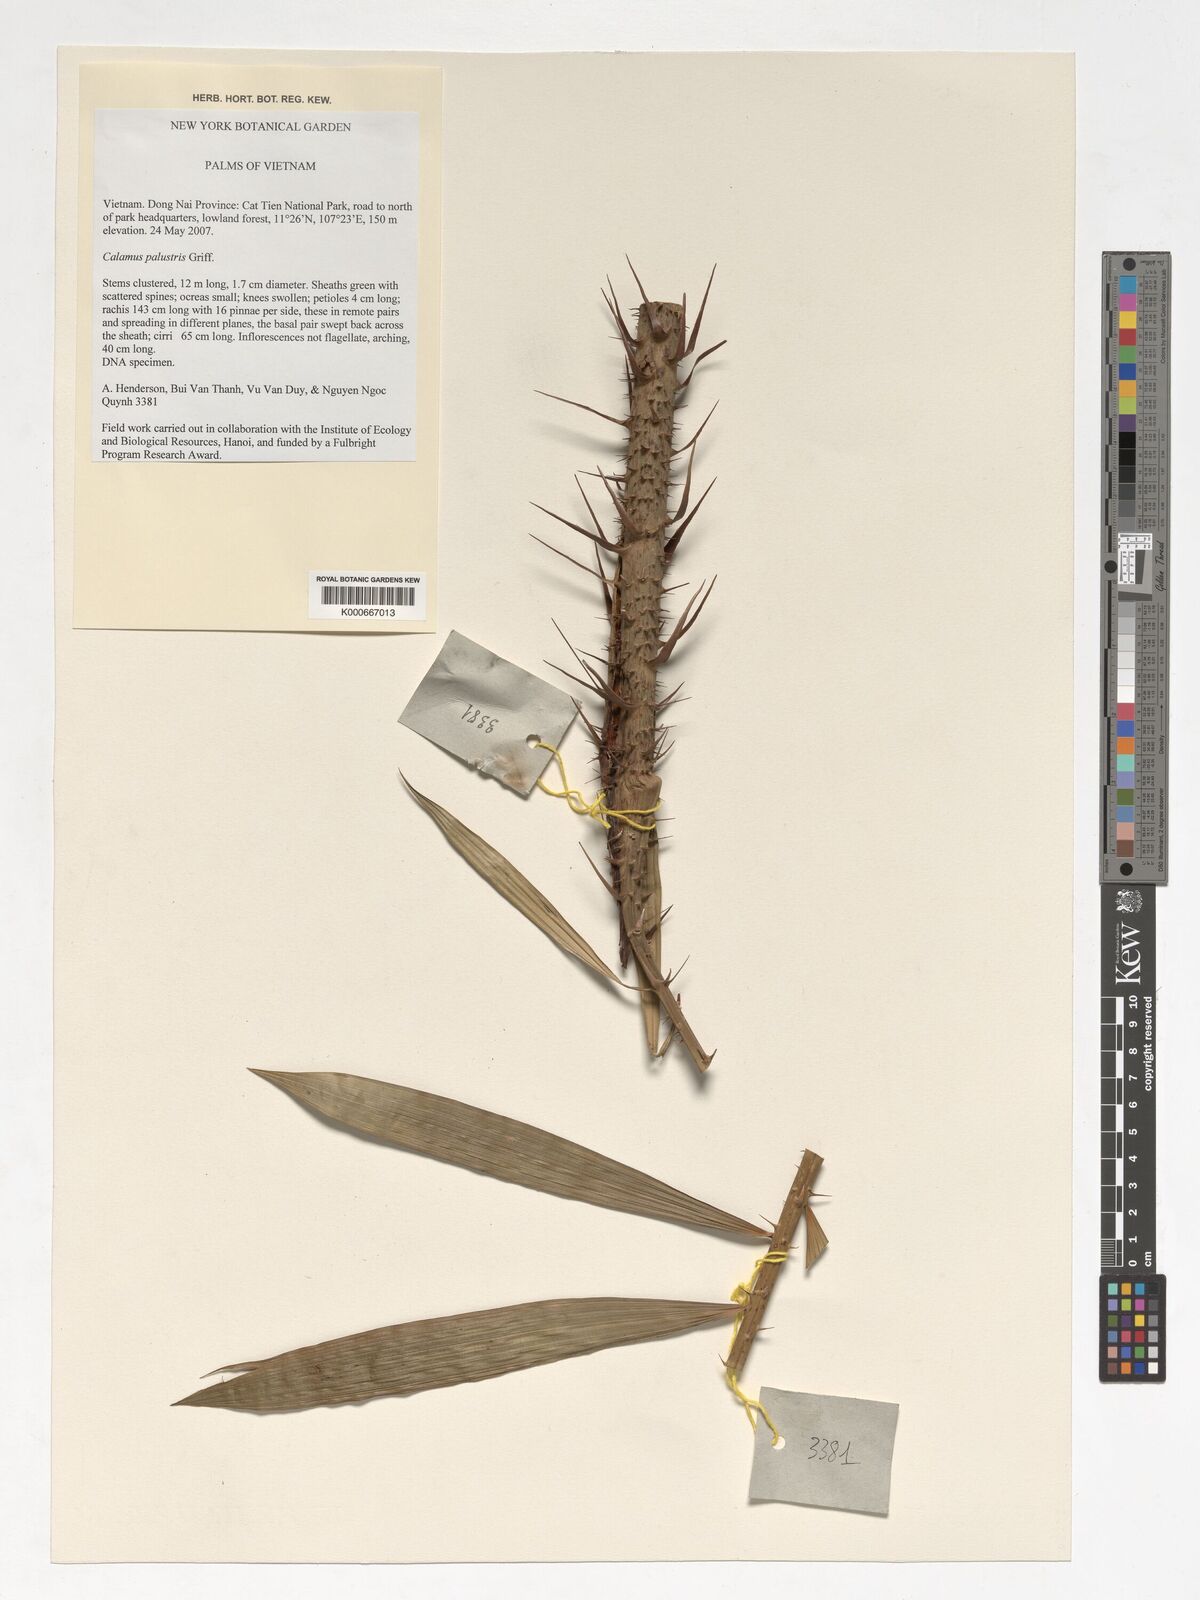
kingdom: Plantae
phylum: Tracheophyta
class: Liliopsida
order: Arecales
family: Arecaceae
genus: Calamus
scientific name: Calamus latifolius
